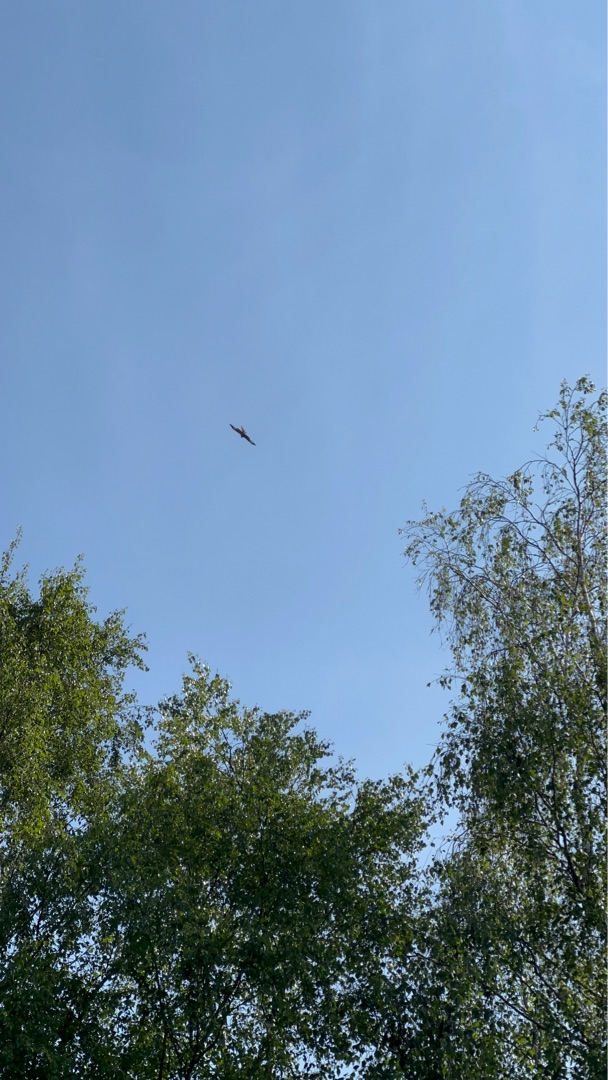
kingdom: Animalia
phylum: Chordata
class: Aves
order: Accipitriformes
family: Accipitridae
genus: Milvus
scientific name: Milvus milvus
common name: Rød glente
